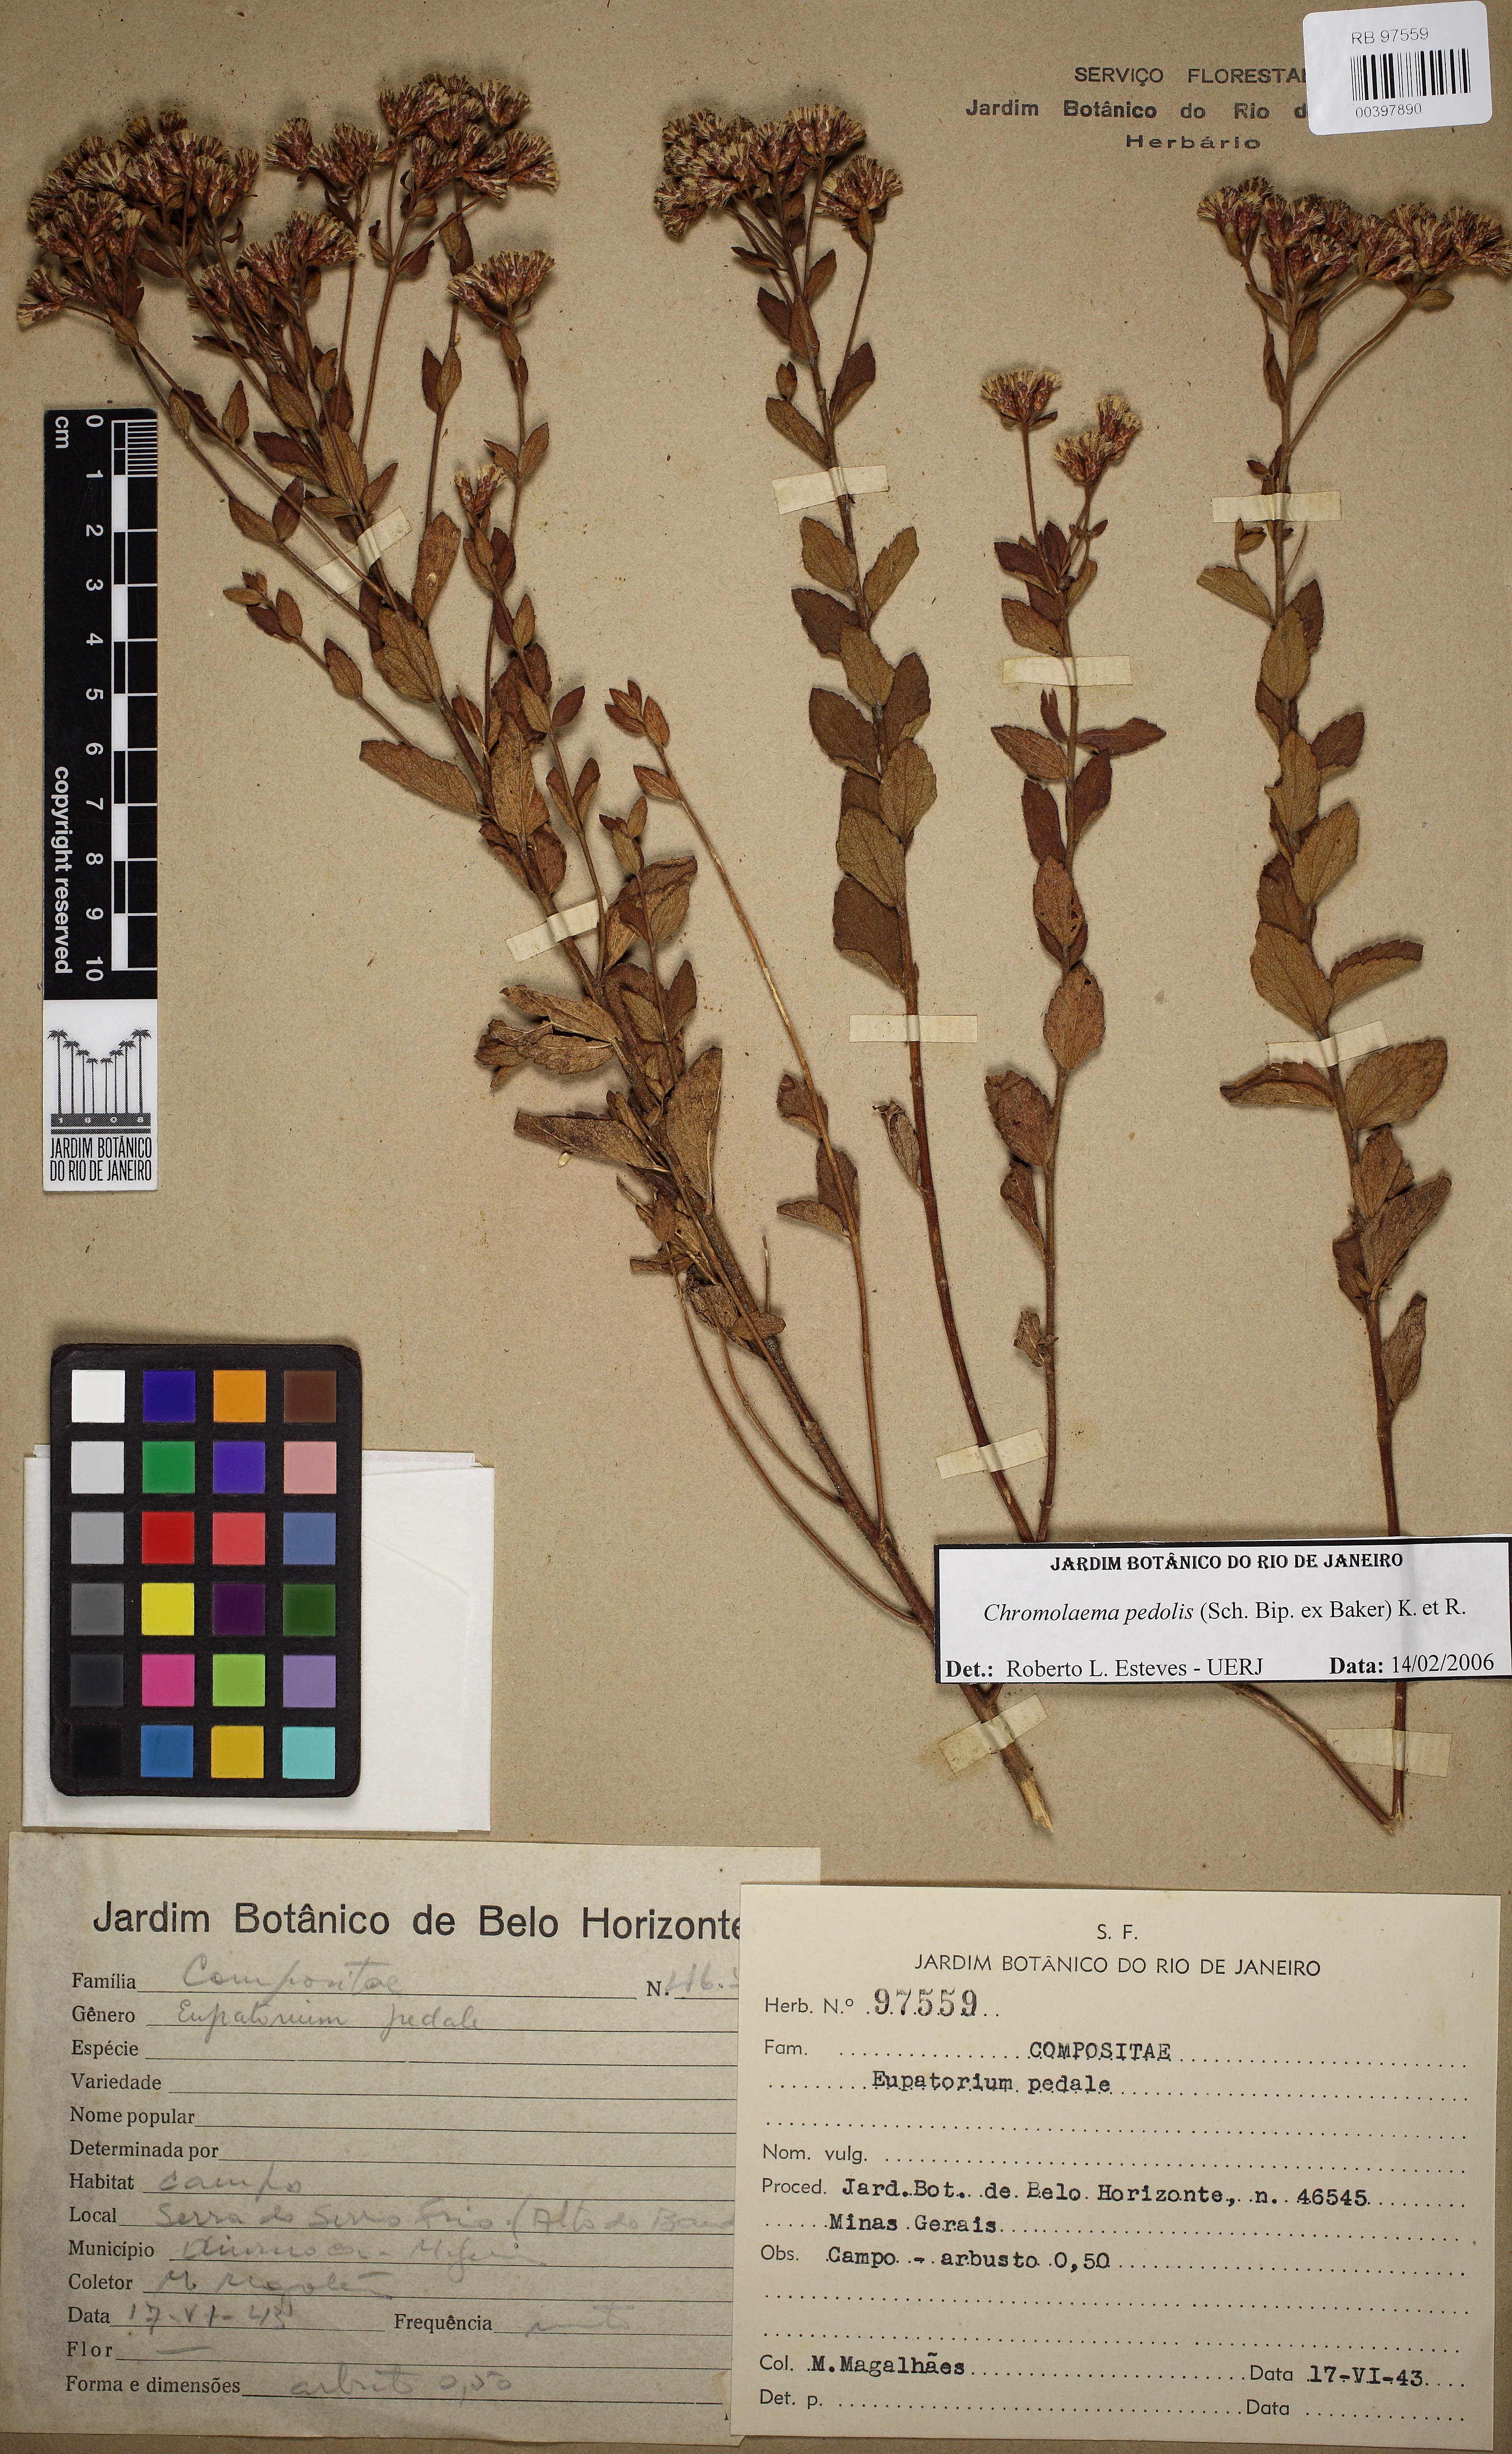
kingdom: Plantae
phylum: Tracheophyta
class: Magnoliopsida
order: Asterales
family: Asteraceae
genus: Chromolaena
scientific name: Chromolaena pedalis
